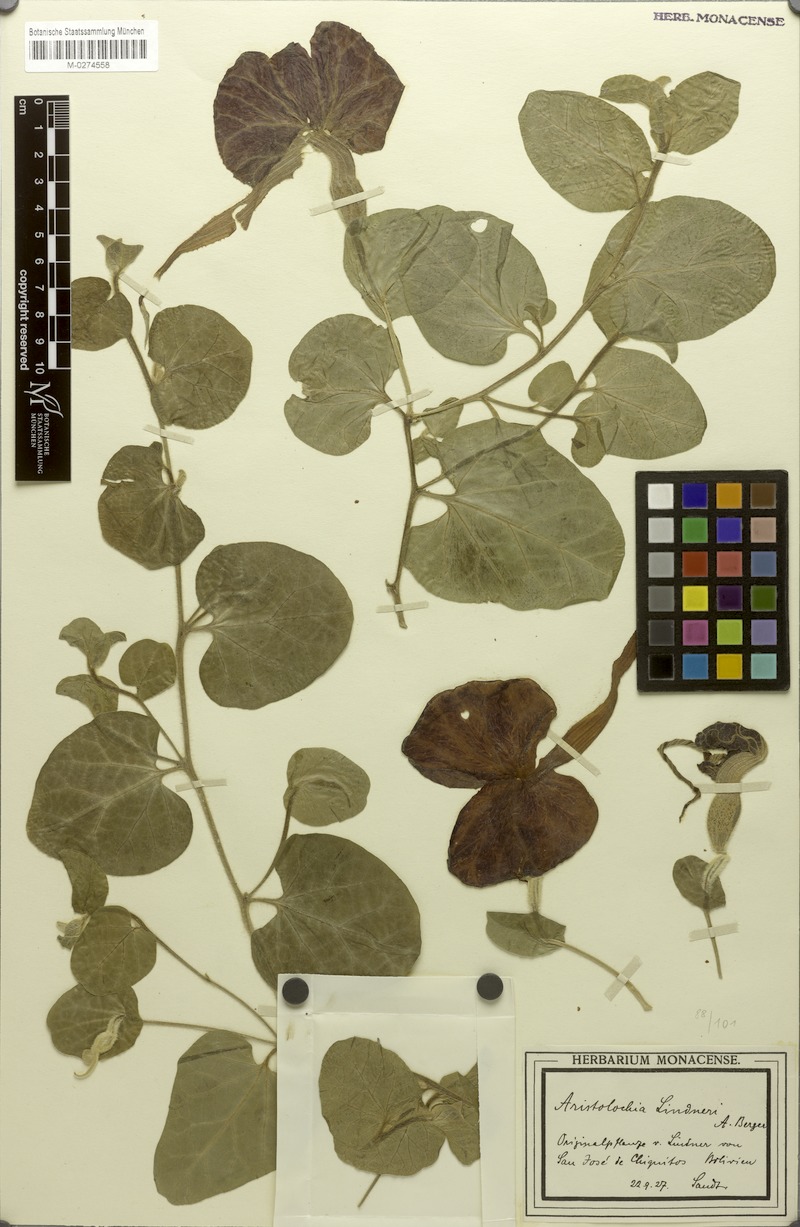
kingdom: Plantae
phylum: Tracheophyta
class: Magnoliopsida
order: Piperales
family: Aristolochiaceae
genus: Aristolochia
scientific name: Aristolochia lindneri
